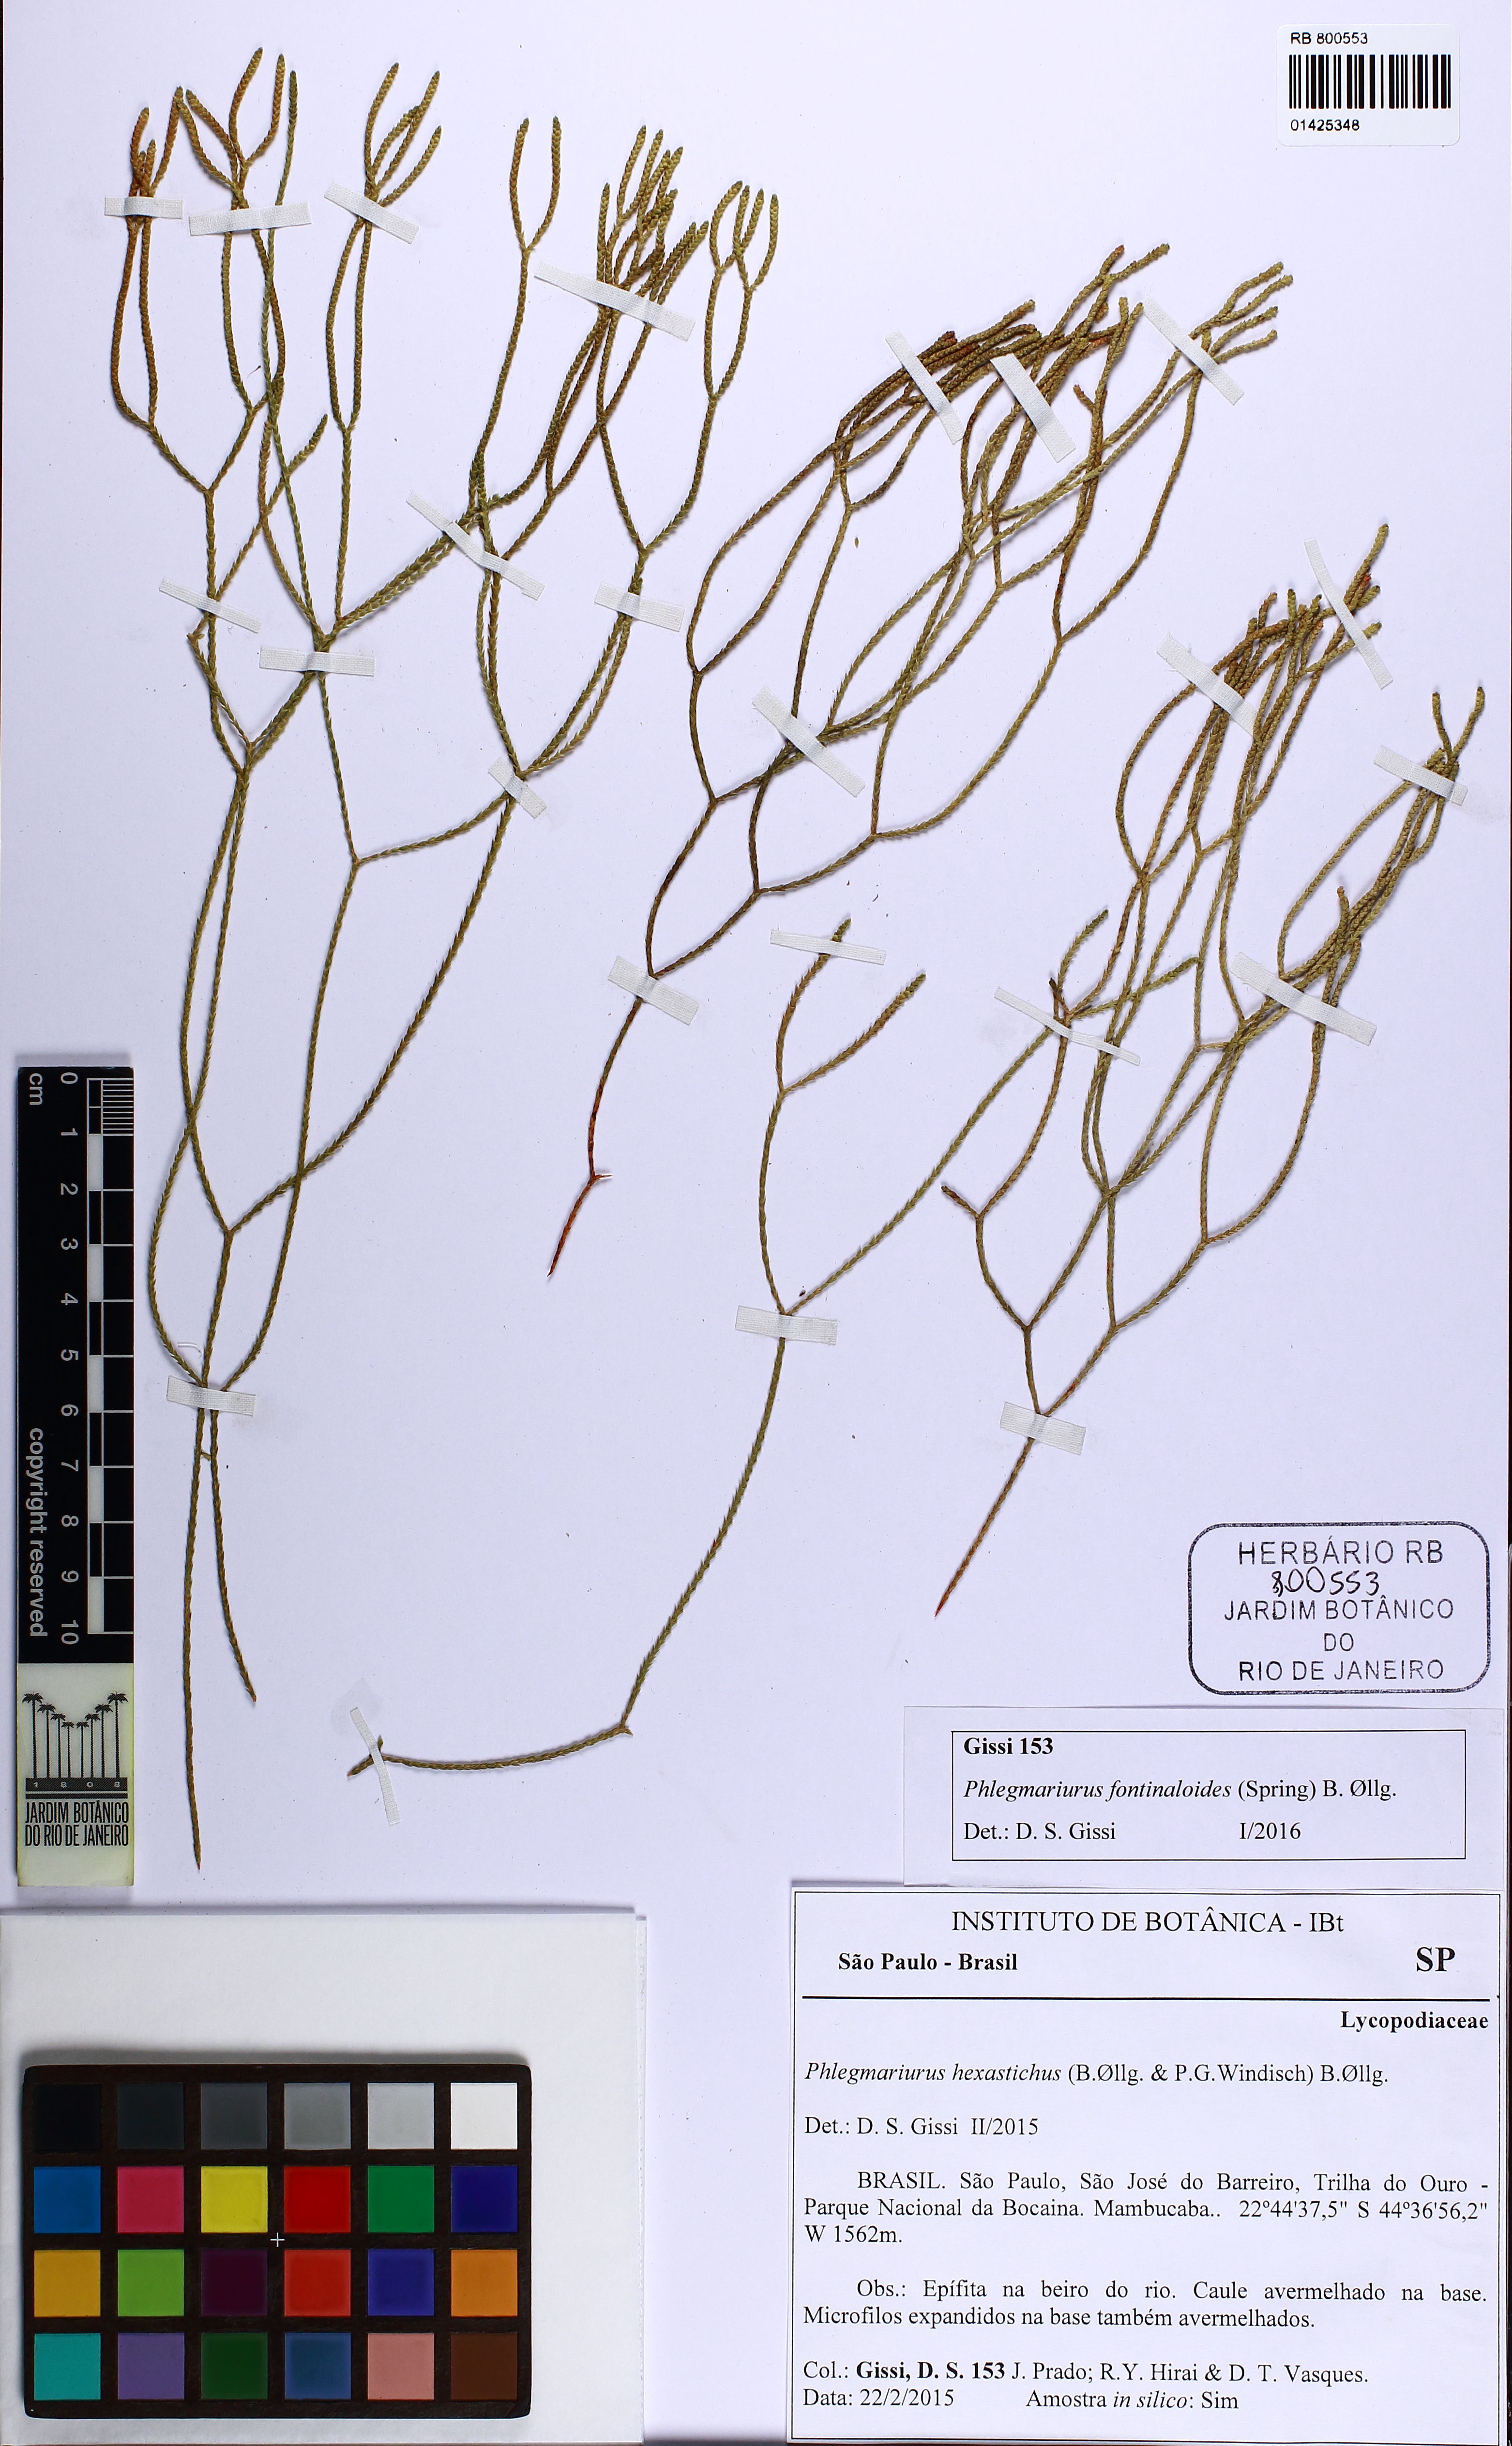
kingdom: Plantae
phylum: Tracheophyta
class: Lycopodiopsida
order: Lycopodiales
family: Lycopodiaceae
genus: Phlegmariurus
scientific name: Phlegmariurus fontinaloides
